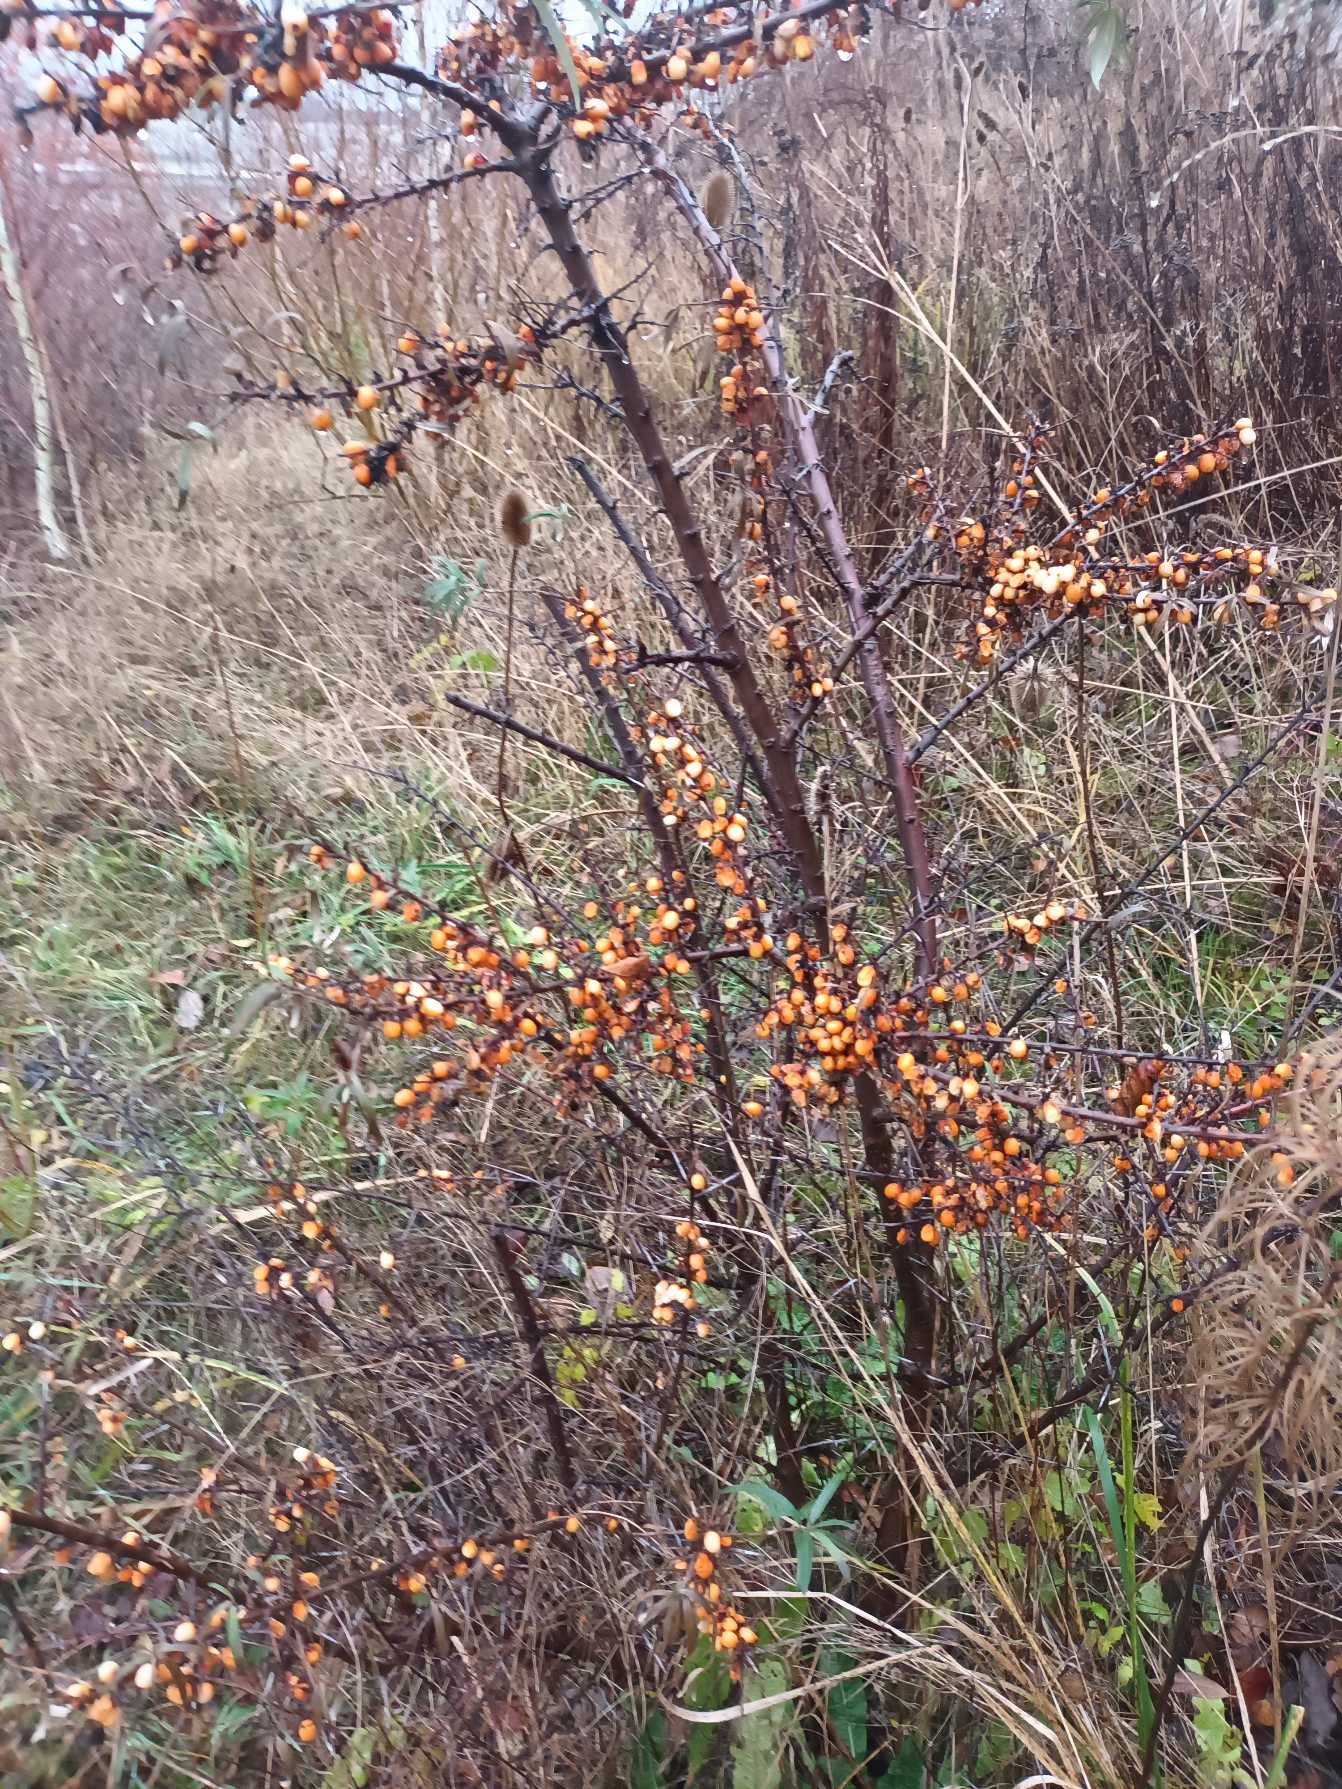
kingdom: Plantae
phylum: Tracheophyta
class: Magnoliopsida
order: Rosales
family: Elaeagnaceae
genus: Hippophae
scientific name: Hippophae rhamnoides
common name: Havtorn
